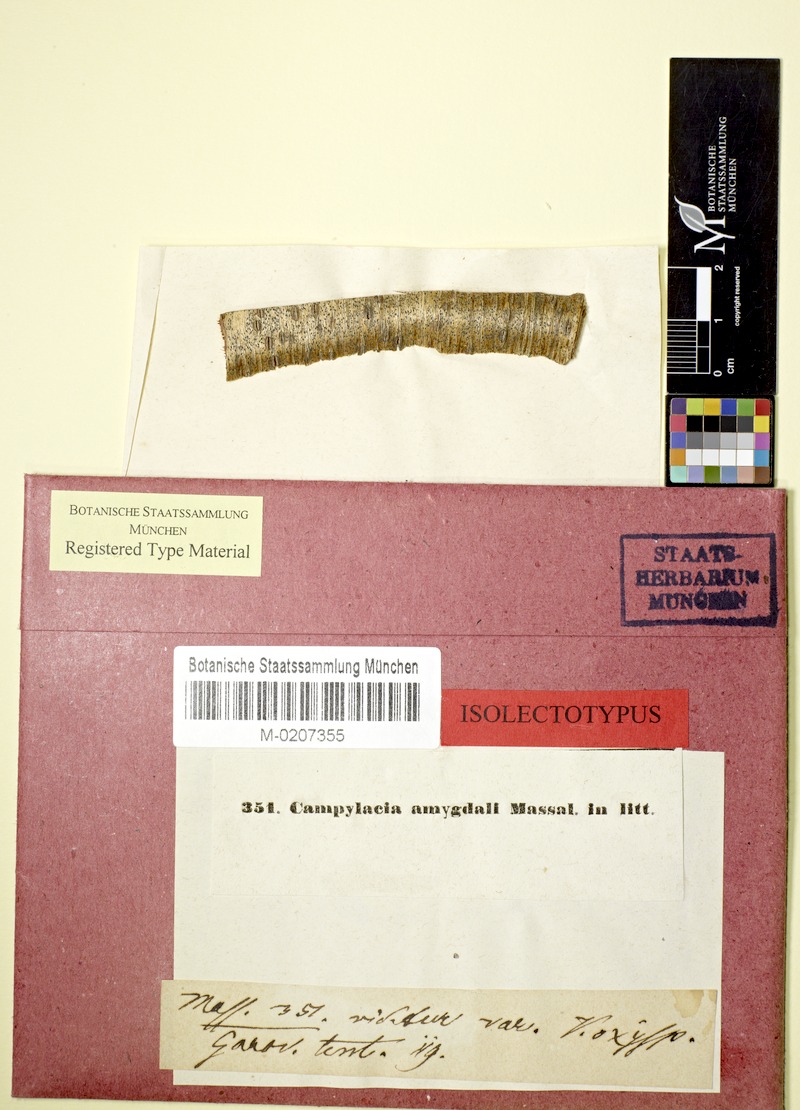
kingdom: Fungi
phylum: Ascomycota
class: Dothideomycetes
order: Pleosporales
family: Naetrocymbaceae
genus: Leptorhaphis
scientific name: Leptorhaphis amygdali
